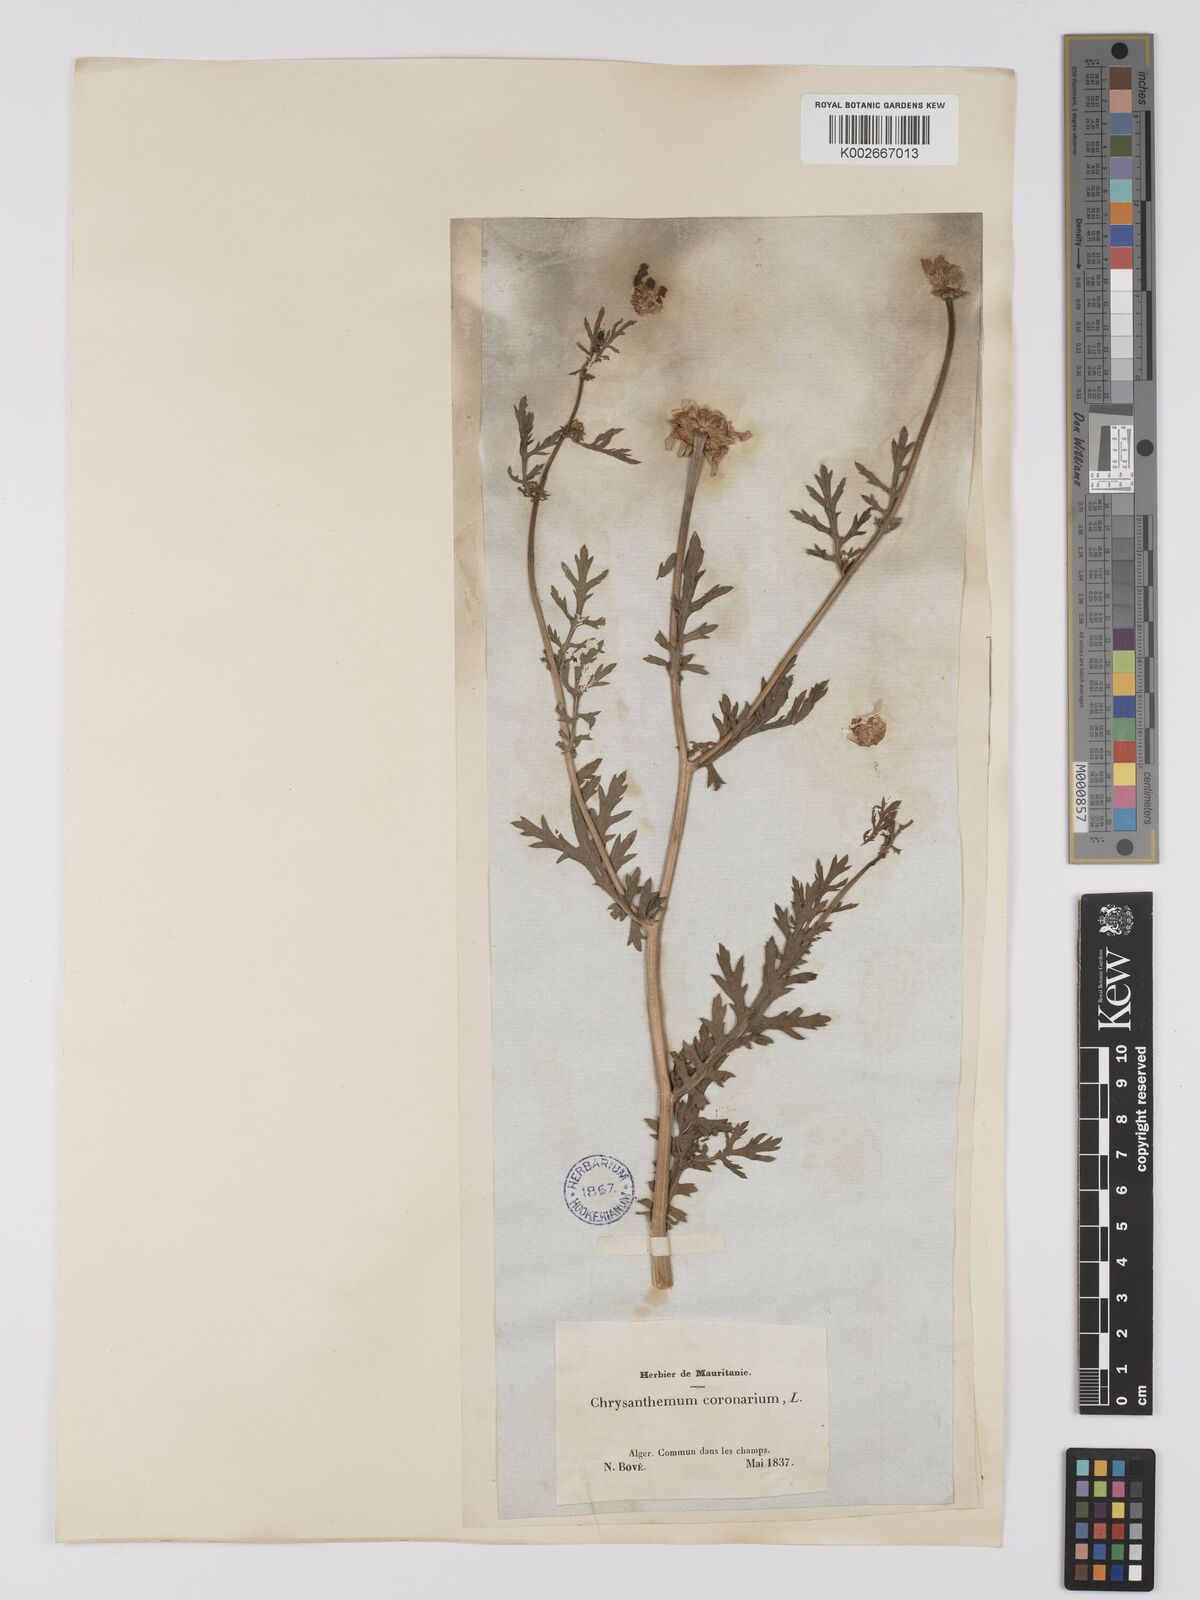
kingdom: Plantae
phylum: Tracheophyta
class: Magnoliopsida
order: Asterales
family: Asteraceae
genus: Glebionis
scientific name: Glebionis
